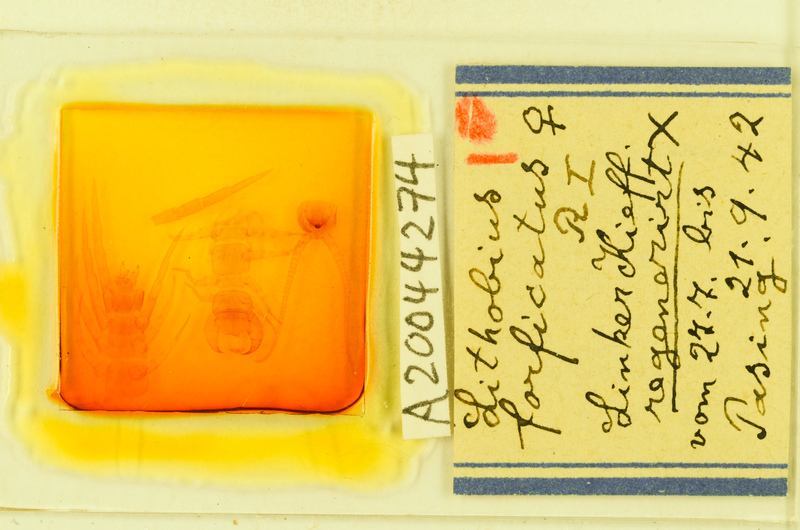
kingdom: Animalia
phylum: Arthropoda
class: Chilopoda
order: Lithobiomorpha
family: Lithobiidae
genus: Lithobius
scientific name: Lithobius forficatus
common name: Centipede
